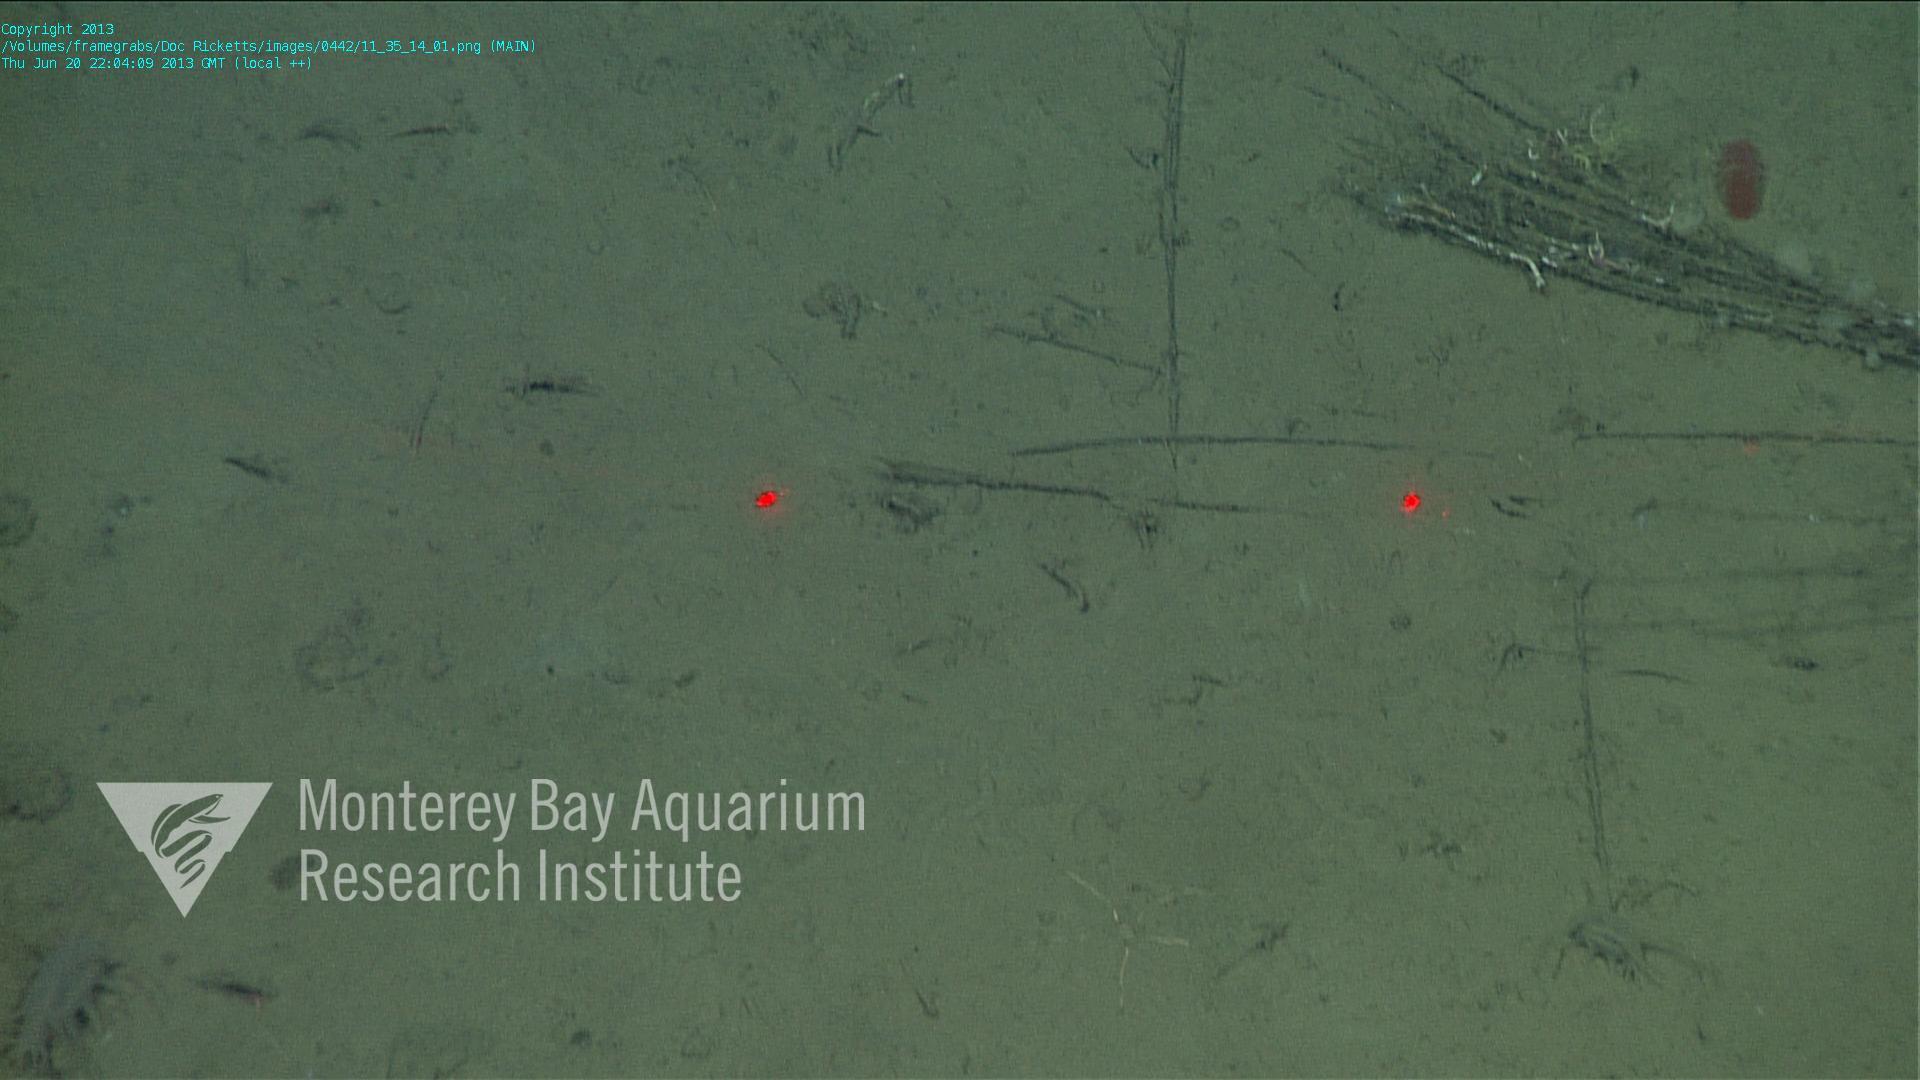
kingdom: Animalia
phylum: Porifera
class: Hexactinellida
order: Lyssacinosida
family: Rossellidae
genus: Bathydorus
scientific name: Bathydorus spinosus
